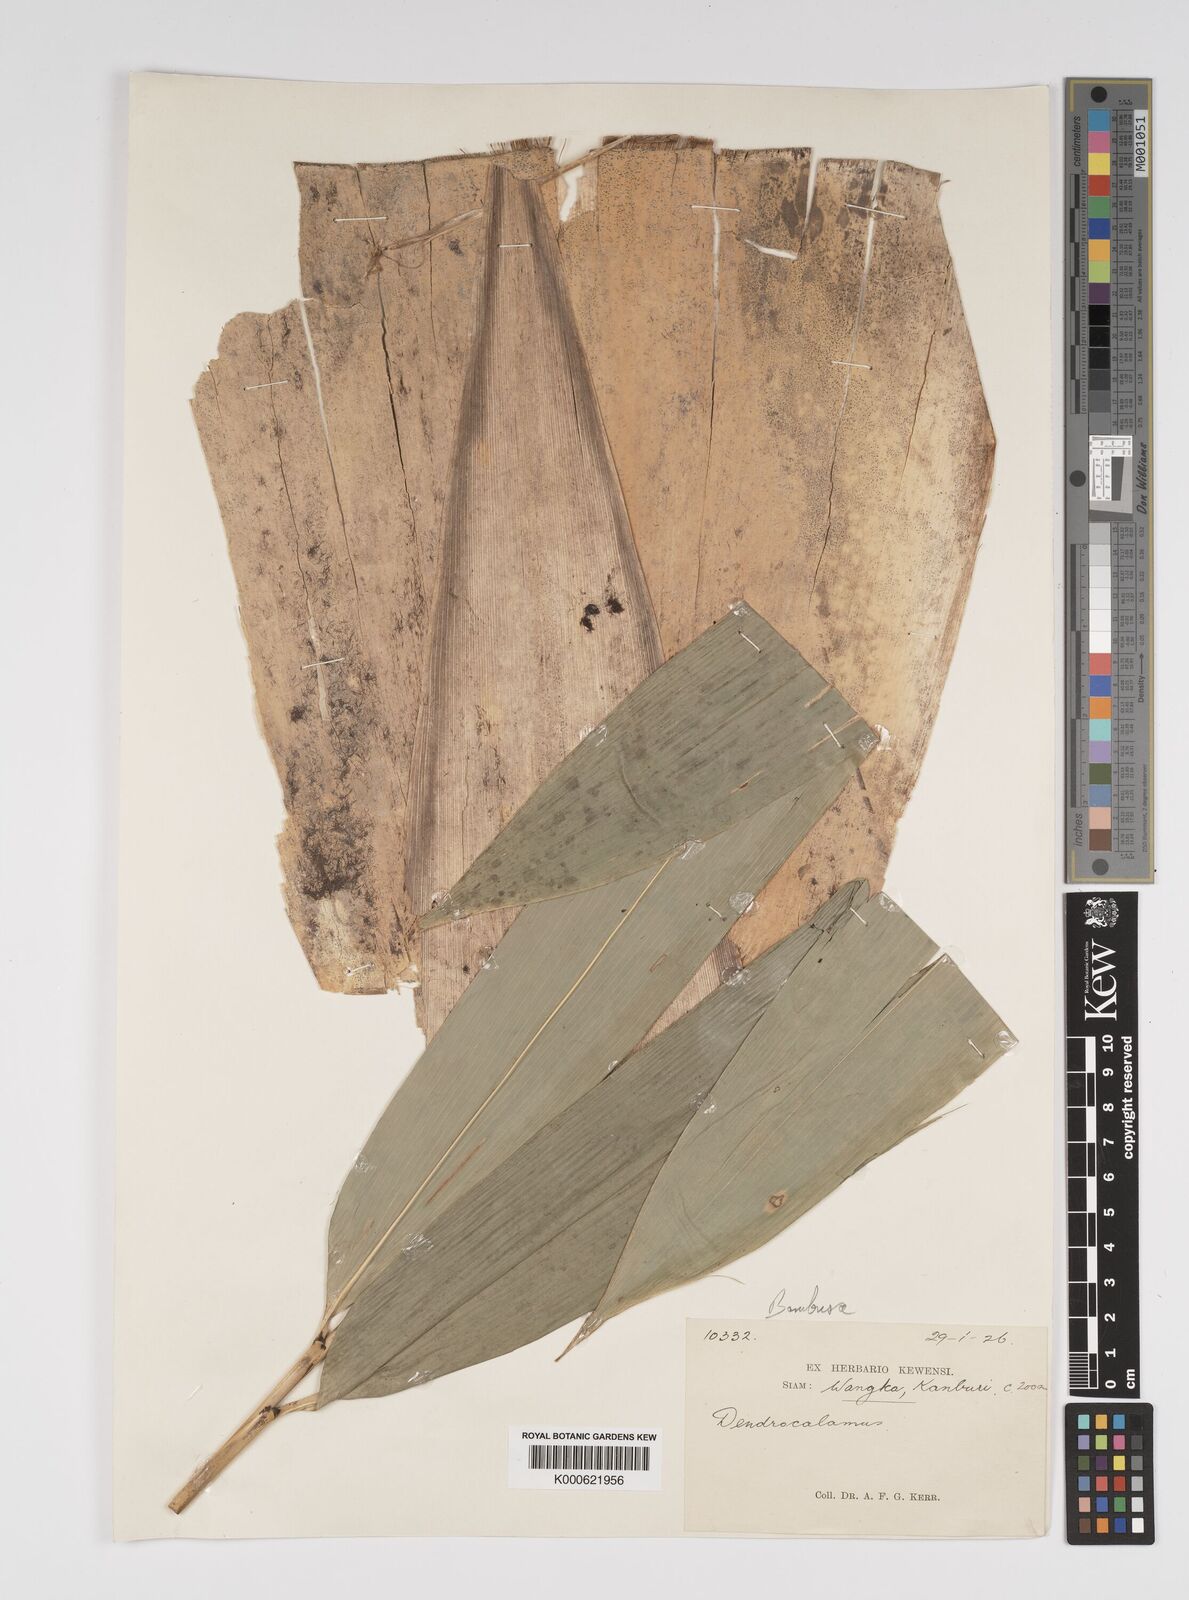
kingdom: Plantae
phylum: Tracheophyta
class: Liliopsida
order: Poales
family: Poaceae
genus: Bambusa
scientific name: Bambusa
